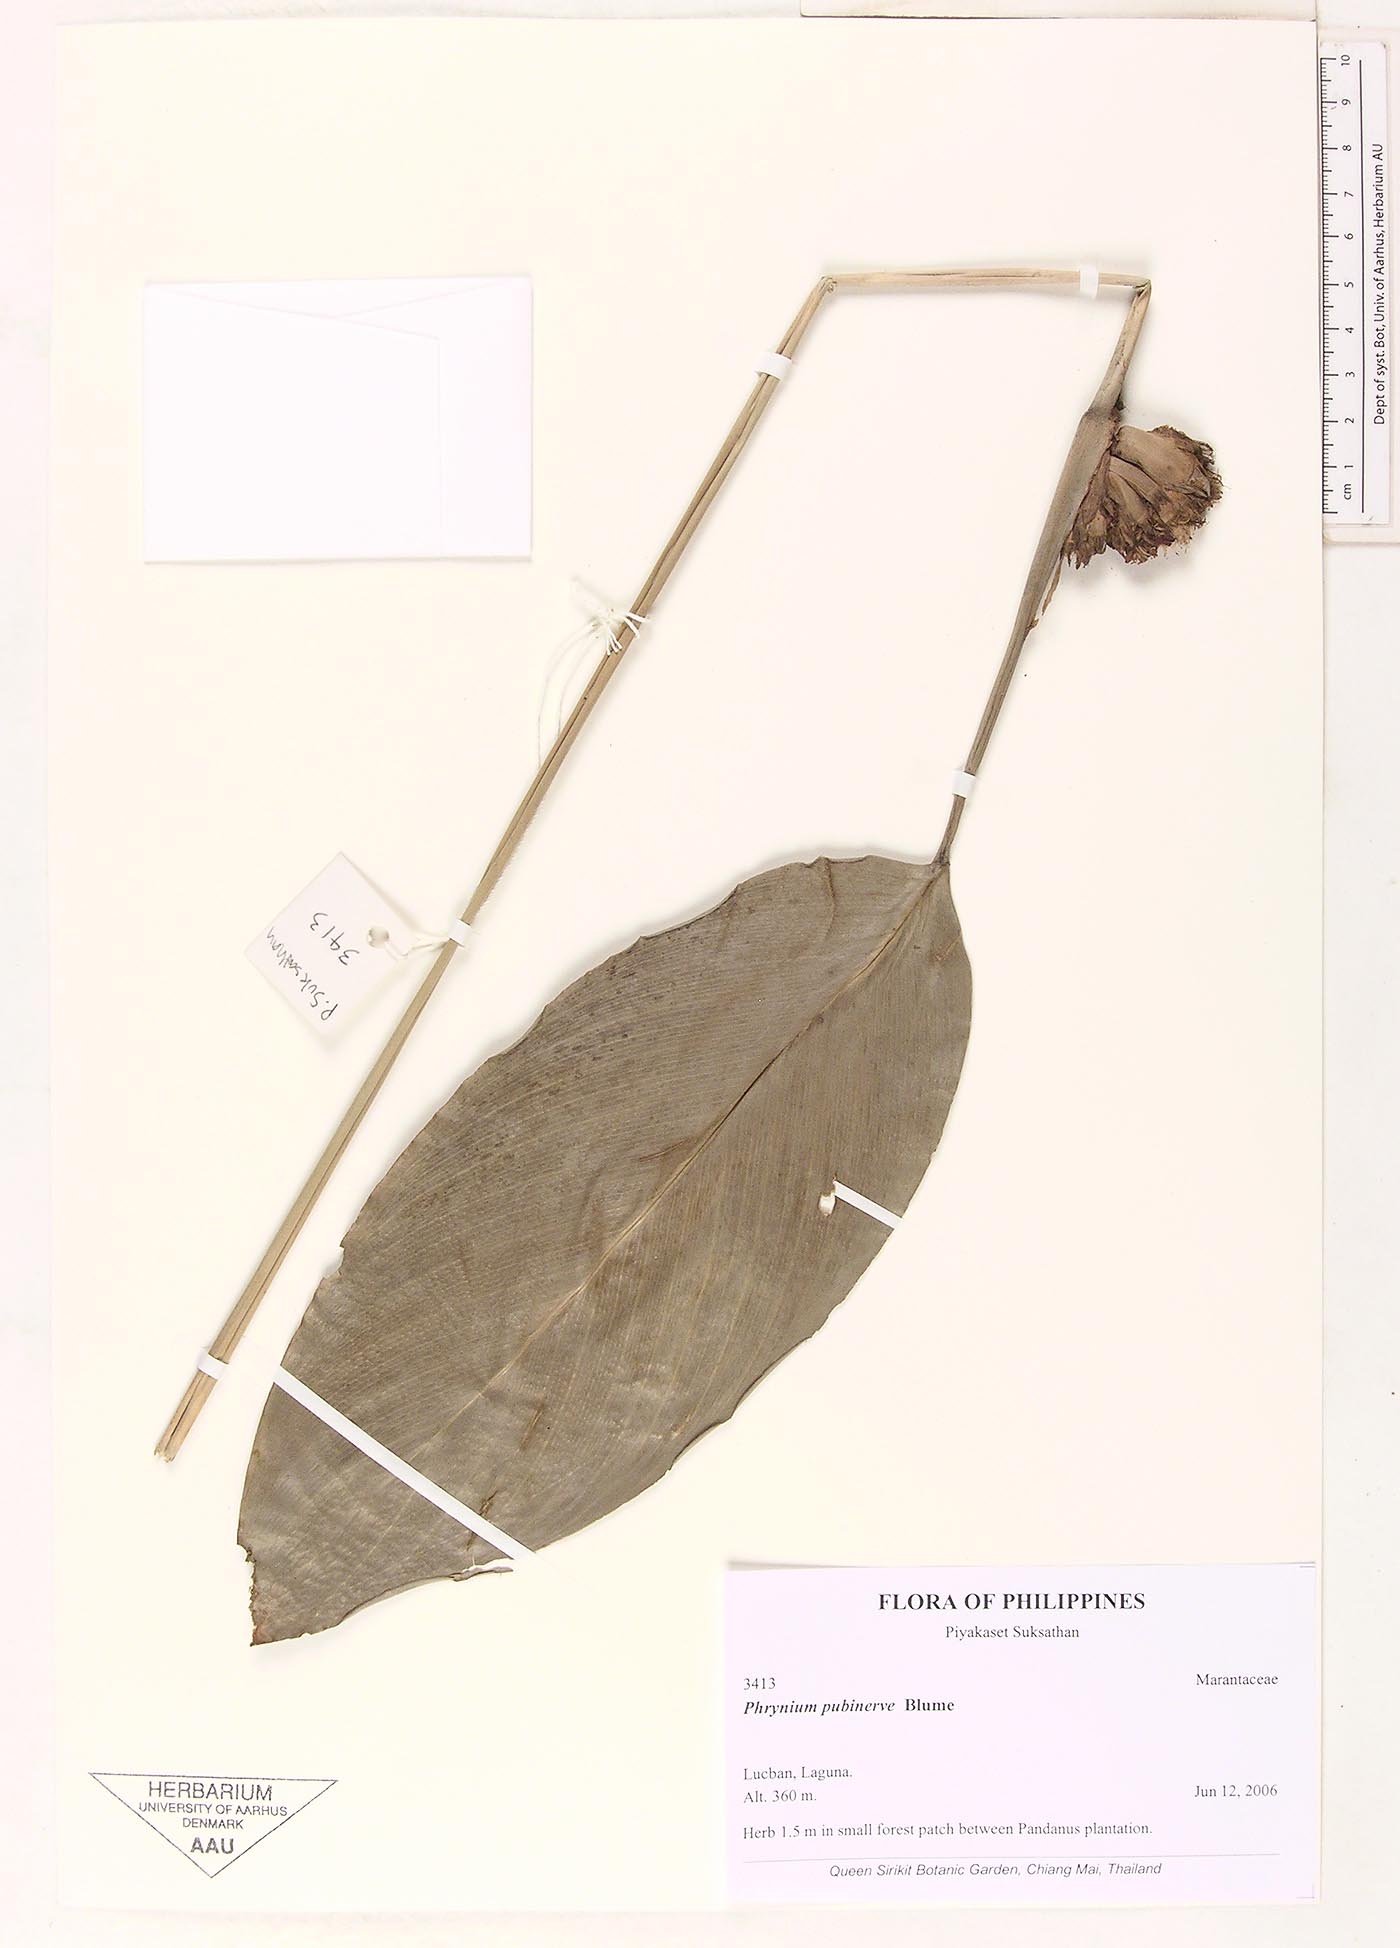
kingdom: Plantae
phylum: Tracheophyta
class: Liliopsida
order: Zingiberales
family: Marantaceae
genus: Phrynium
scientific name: Phrynium pubinerve
